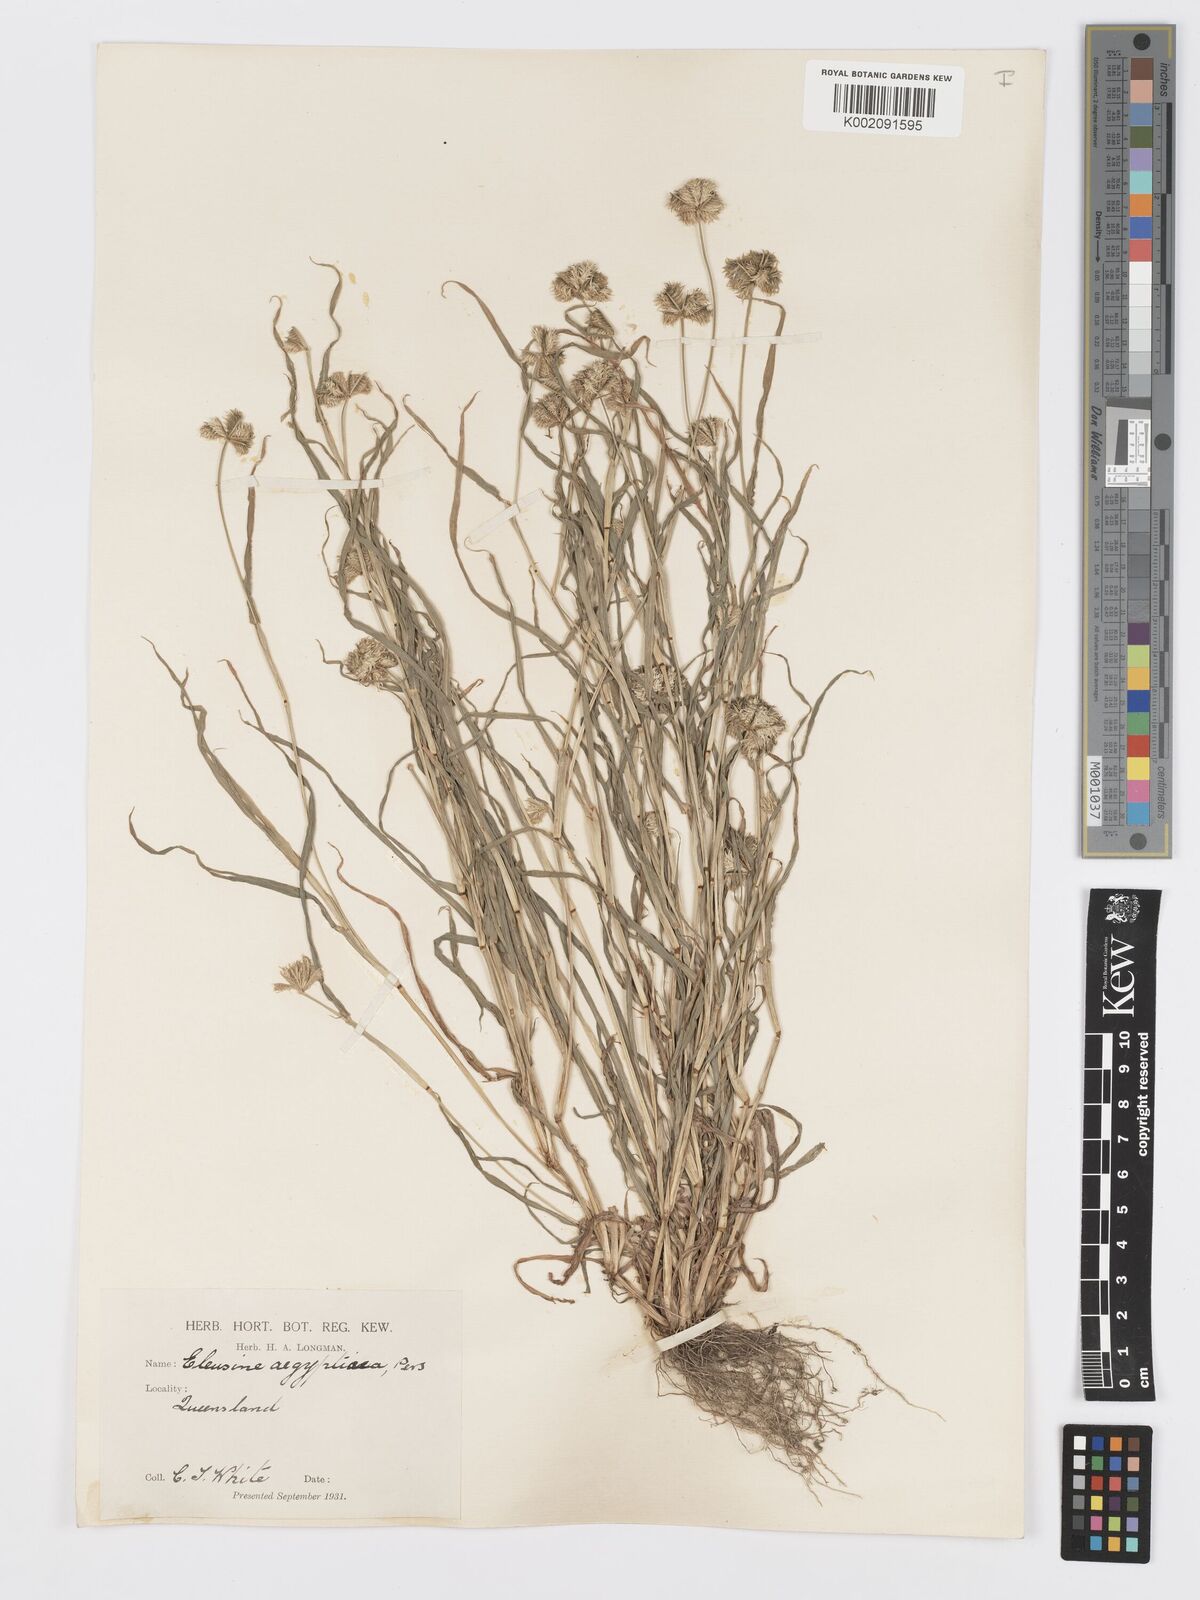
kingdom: Plantae
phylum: Tracheophyta
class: Liliopsida
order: Poales
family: Poaceae
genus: Dactyloctenium
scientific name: Dactyloctenium radulans
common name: Button-grass
